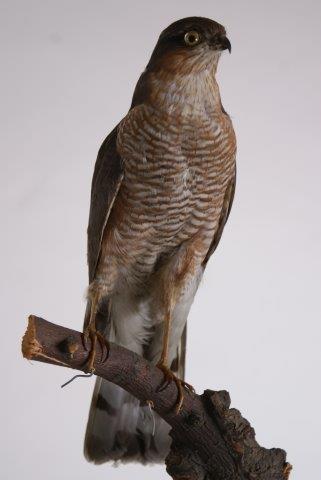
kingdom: Animalia
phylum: Chordata
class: Aves
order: Accipitriformes
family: Accipitridae
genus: Accipiter
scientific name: Accipiter nisus
